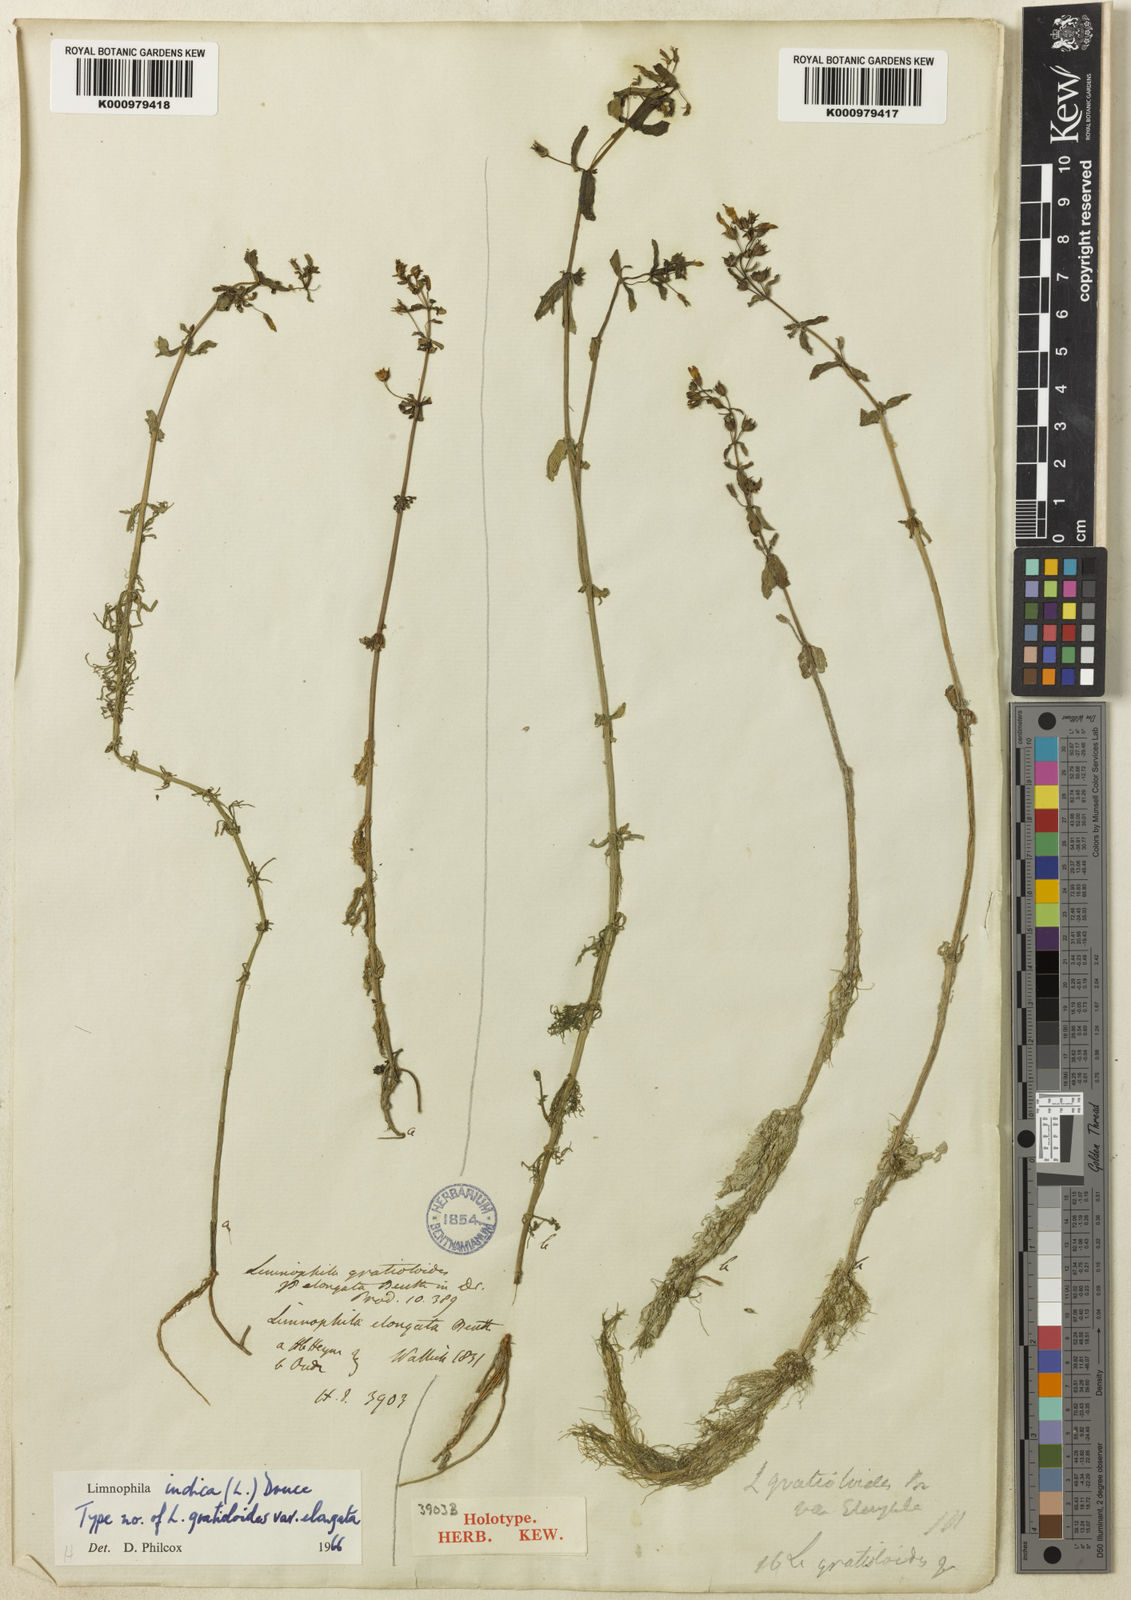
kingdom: Plantae
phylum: Tracheophyta
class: Magnoliopsida
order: Lamiales
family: Plantaginaceae
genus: Limnophila
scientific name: Limnophila indica
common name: Indian marshweed
